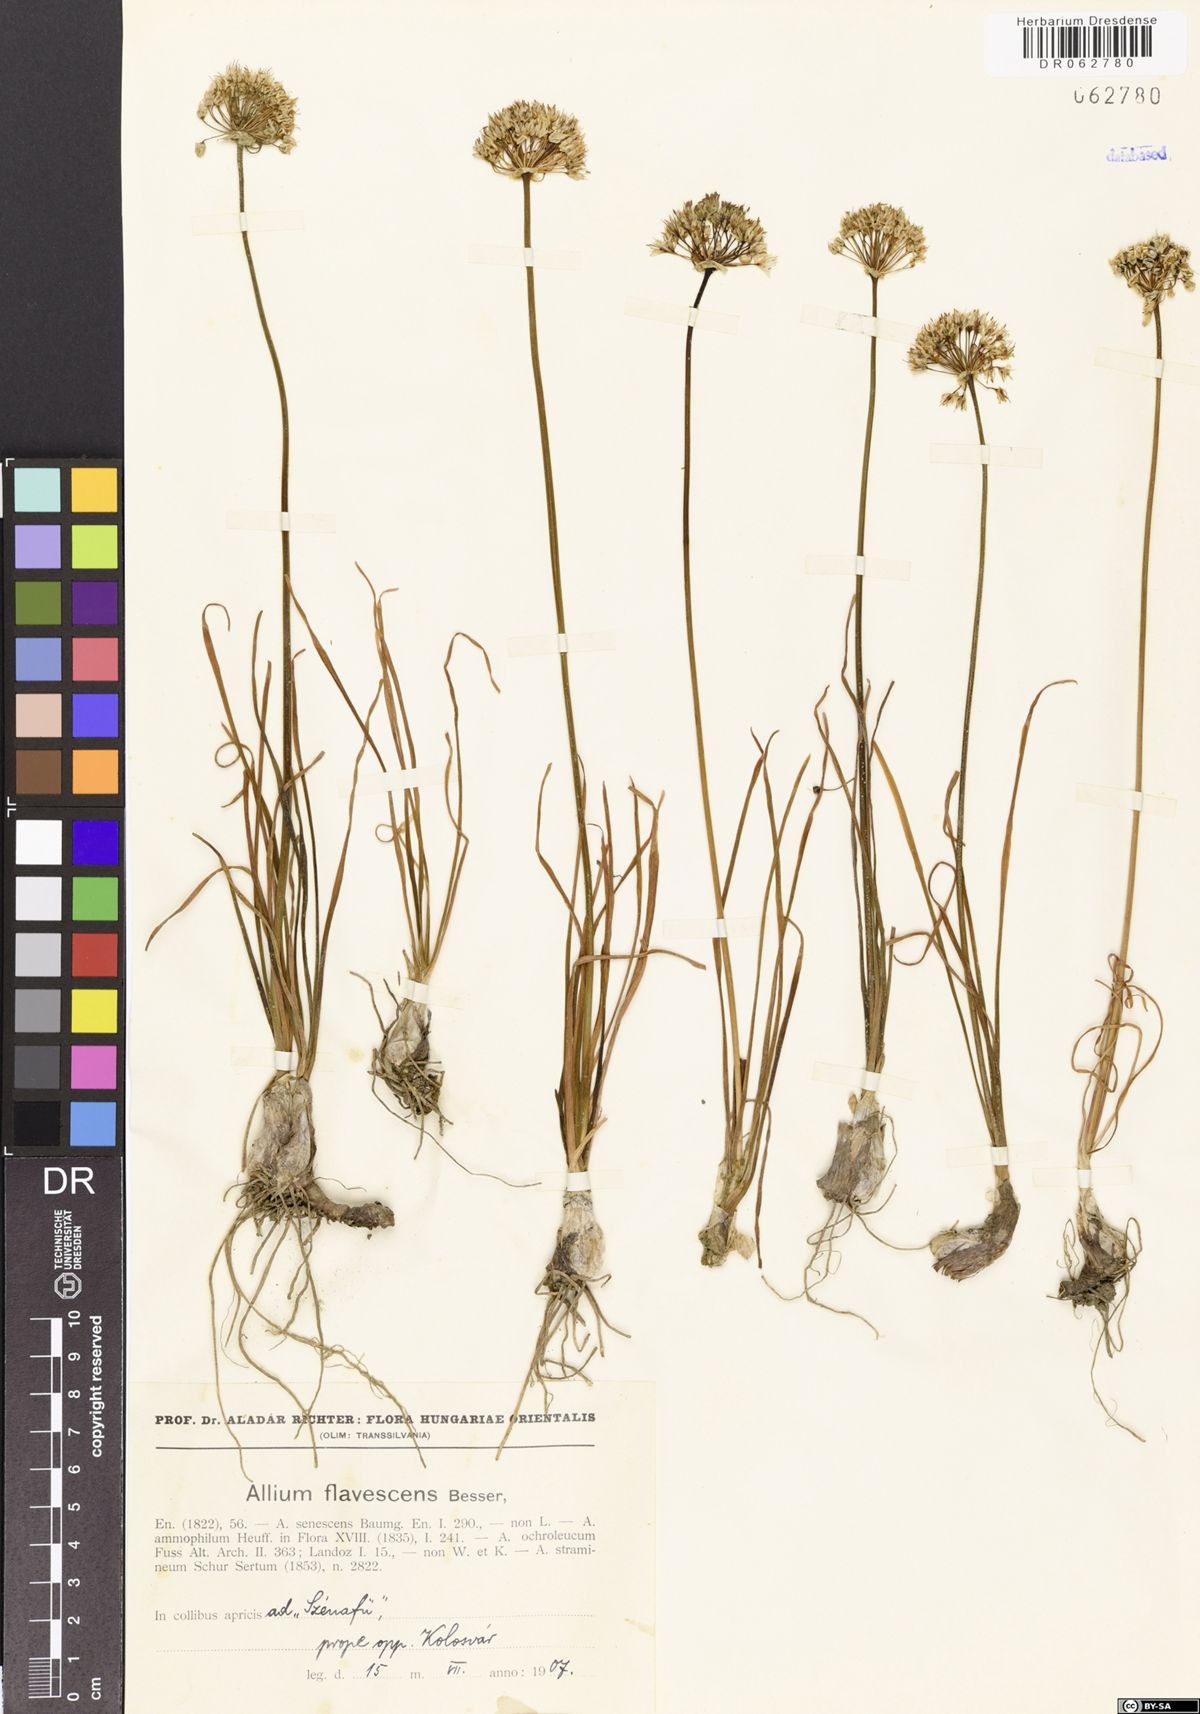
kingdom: Plantae
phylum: Tracheophyta
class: Liliopsida
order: Asparagales
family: Amaryllidaceae
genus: Allium
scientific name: Allium flavescens
